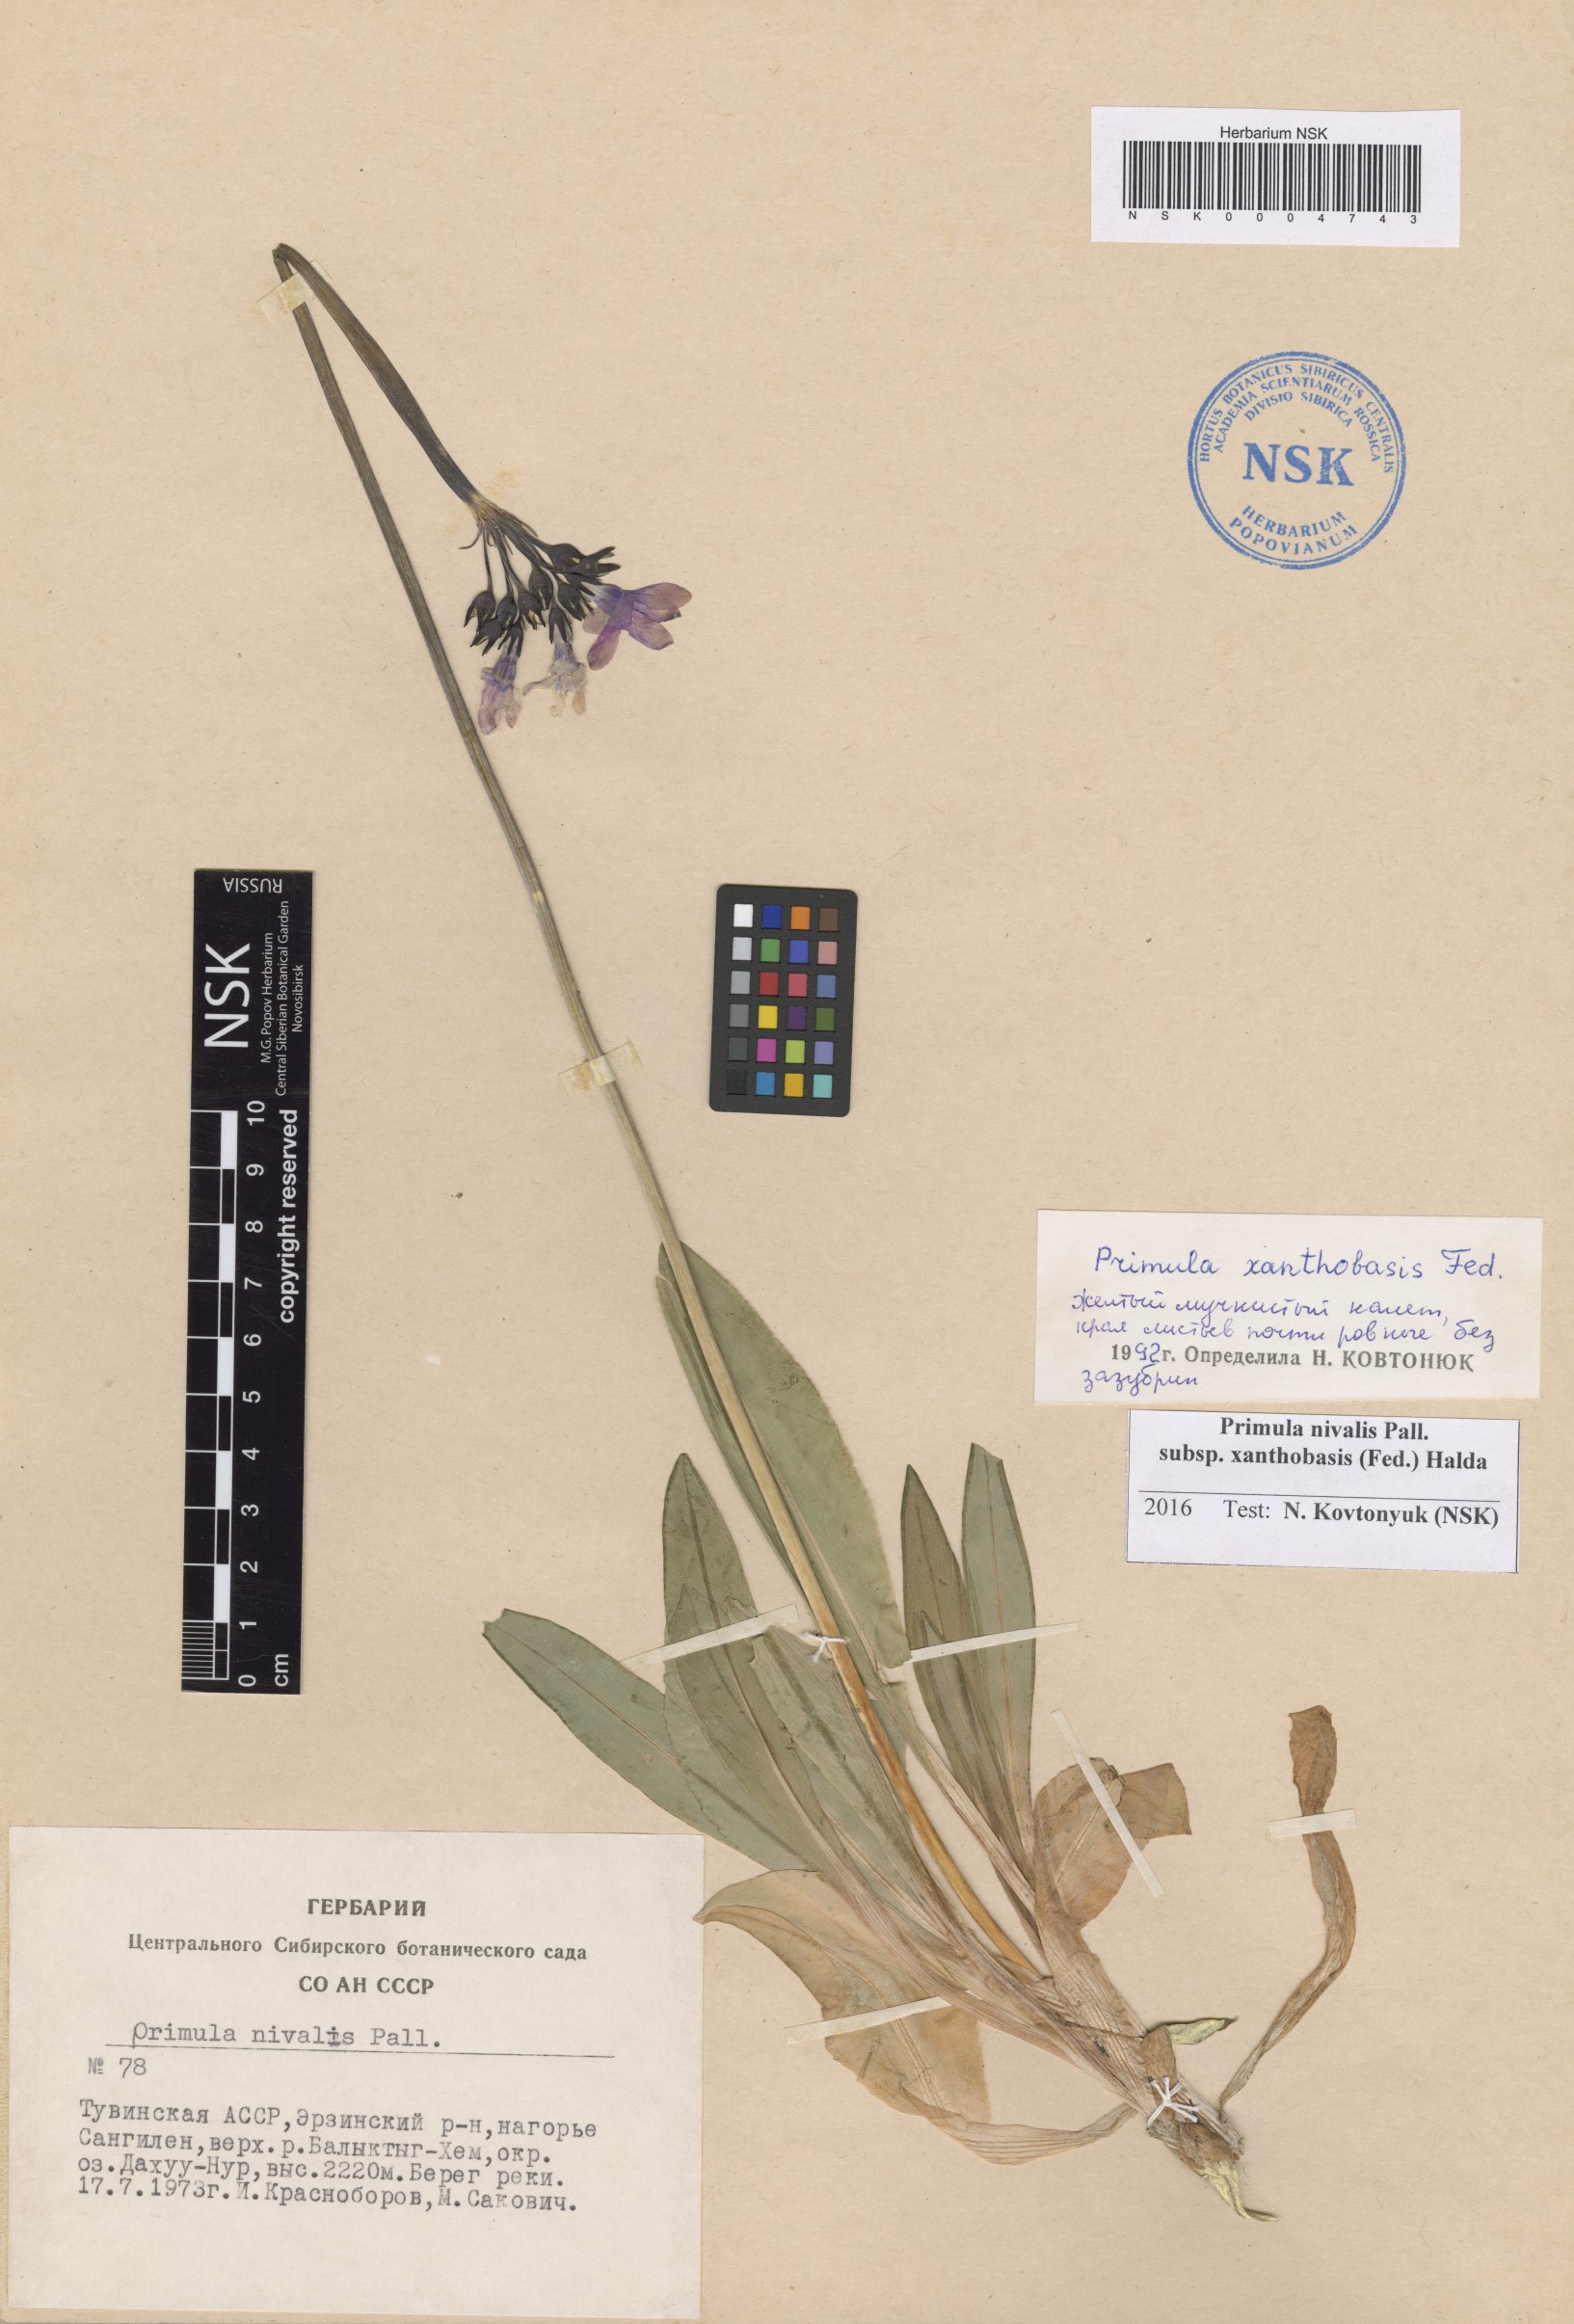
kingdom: Plantae
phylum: Tracheophyta
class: Magnoliopsida
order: Ericales
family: Primulaceae
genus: Primula
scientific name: Primula nivalis
